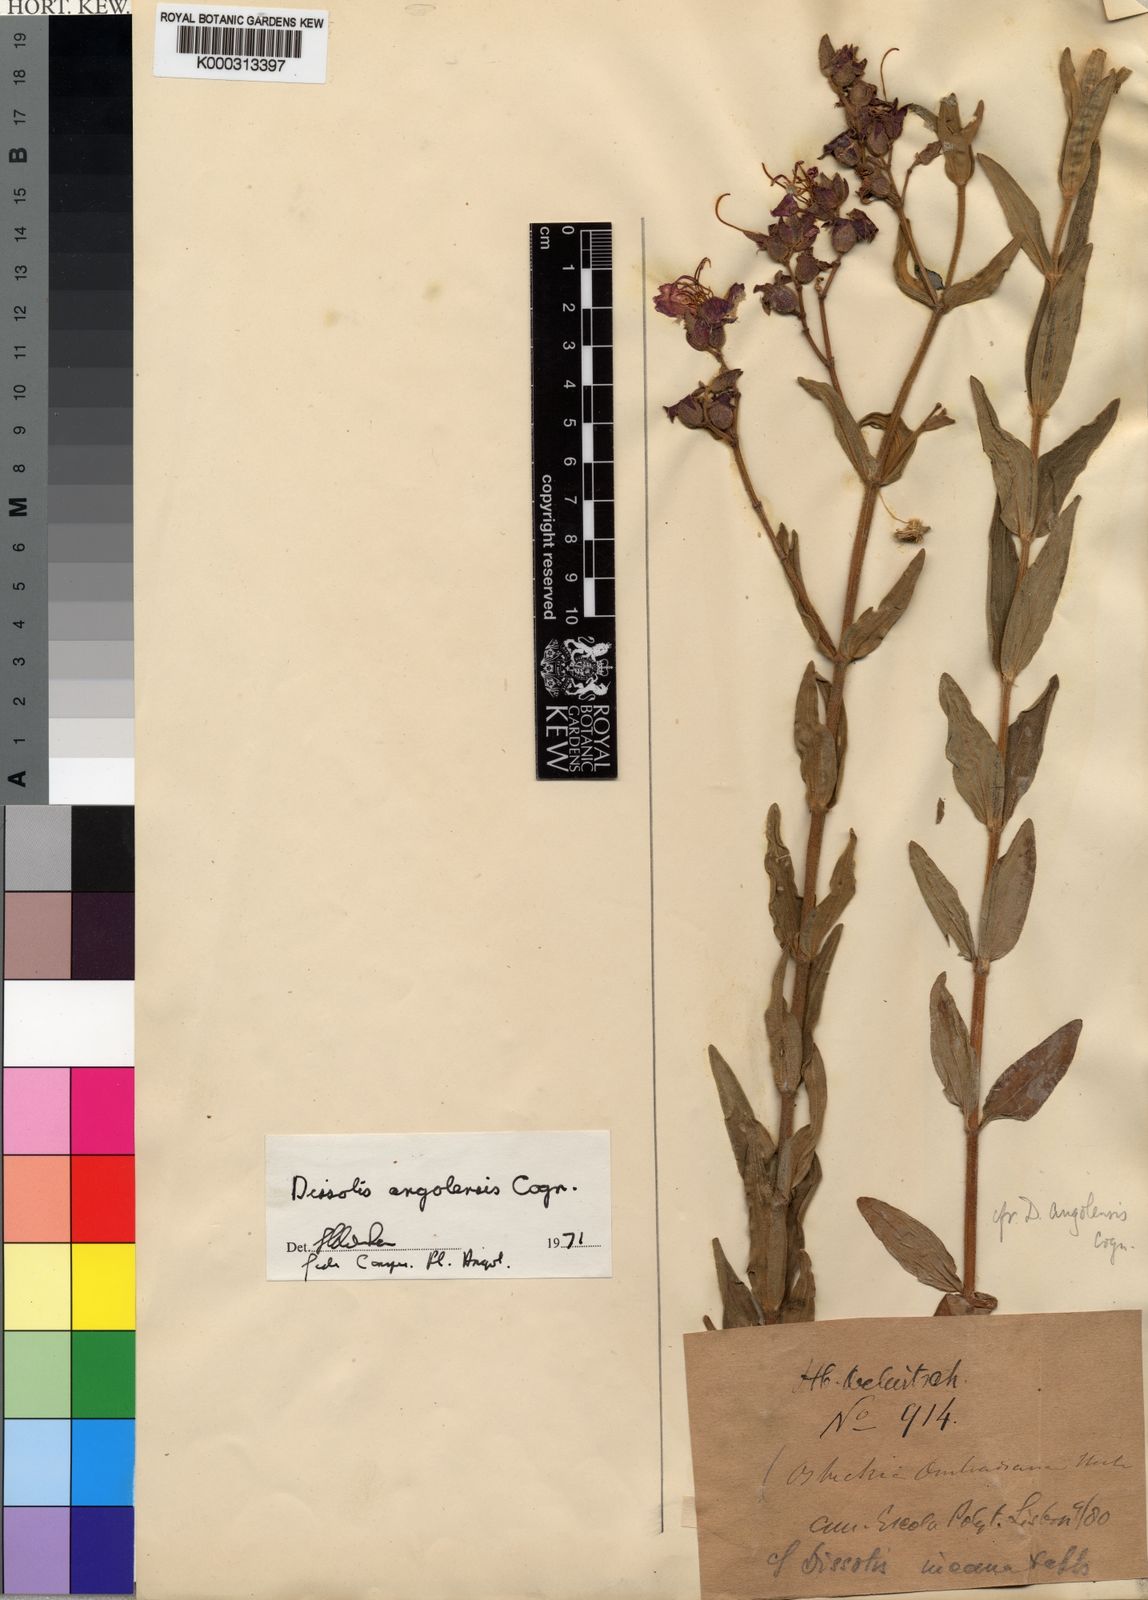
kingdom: Plantae
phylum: Tracheophyta
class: Magnoliopsida
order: Myrtales
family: Melastomataceae
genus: Argyrella
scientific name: Argyrella angolensis
